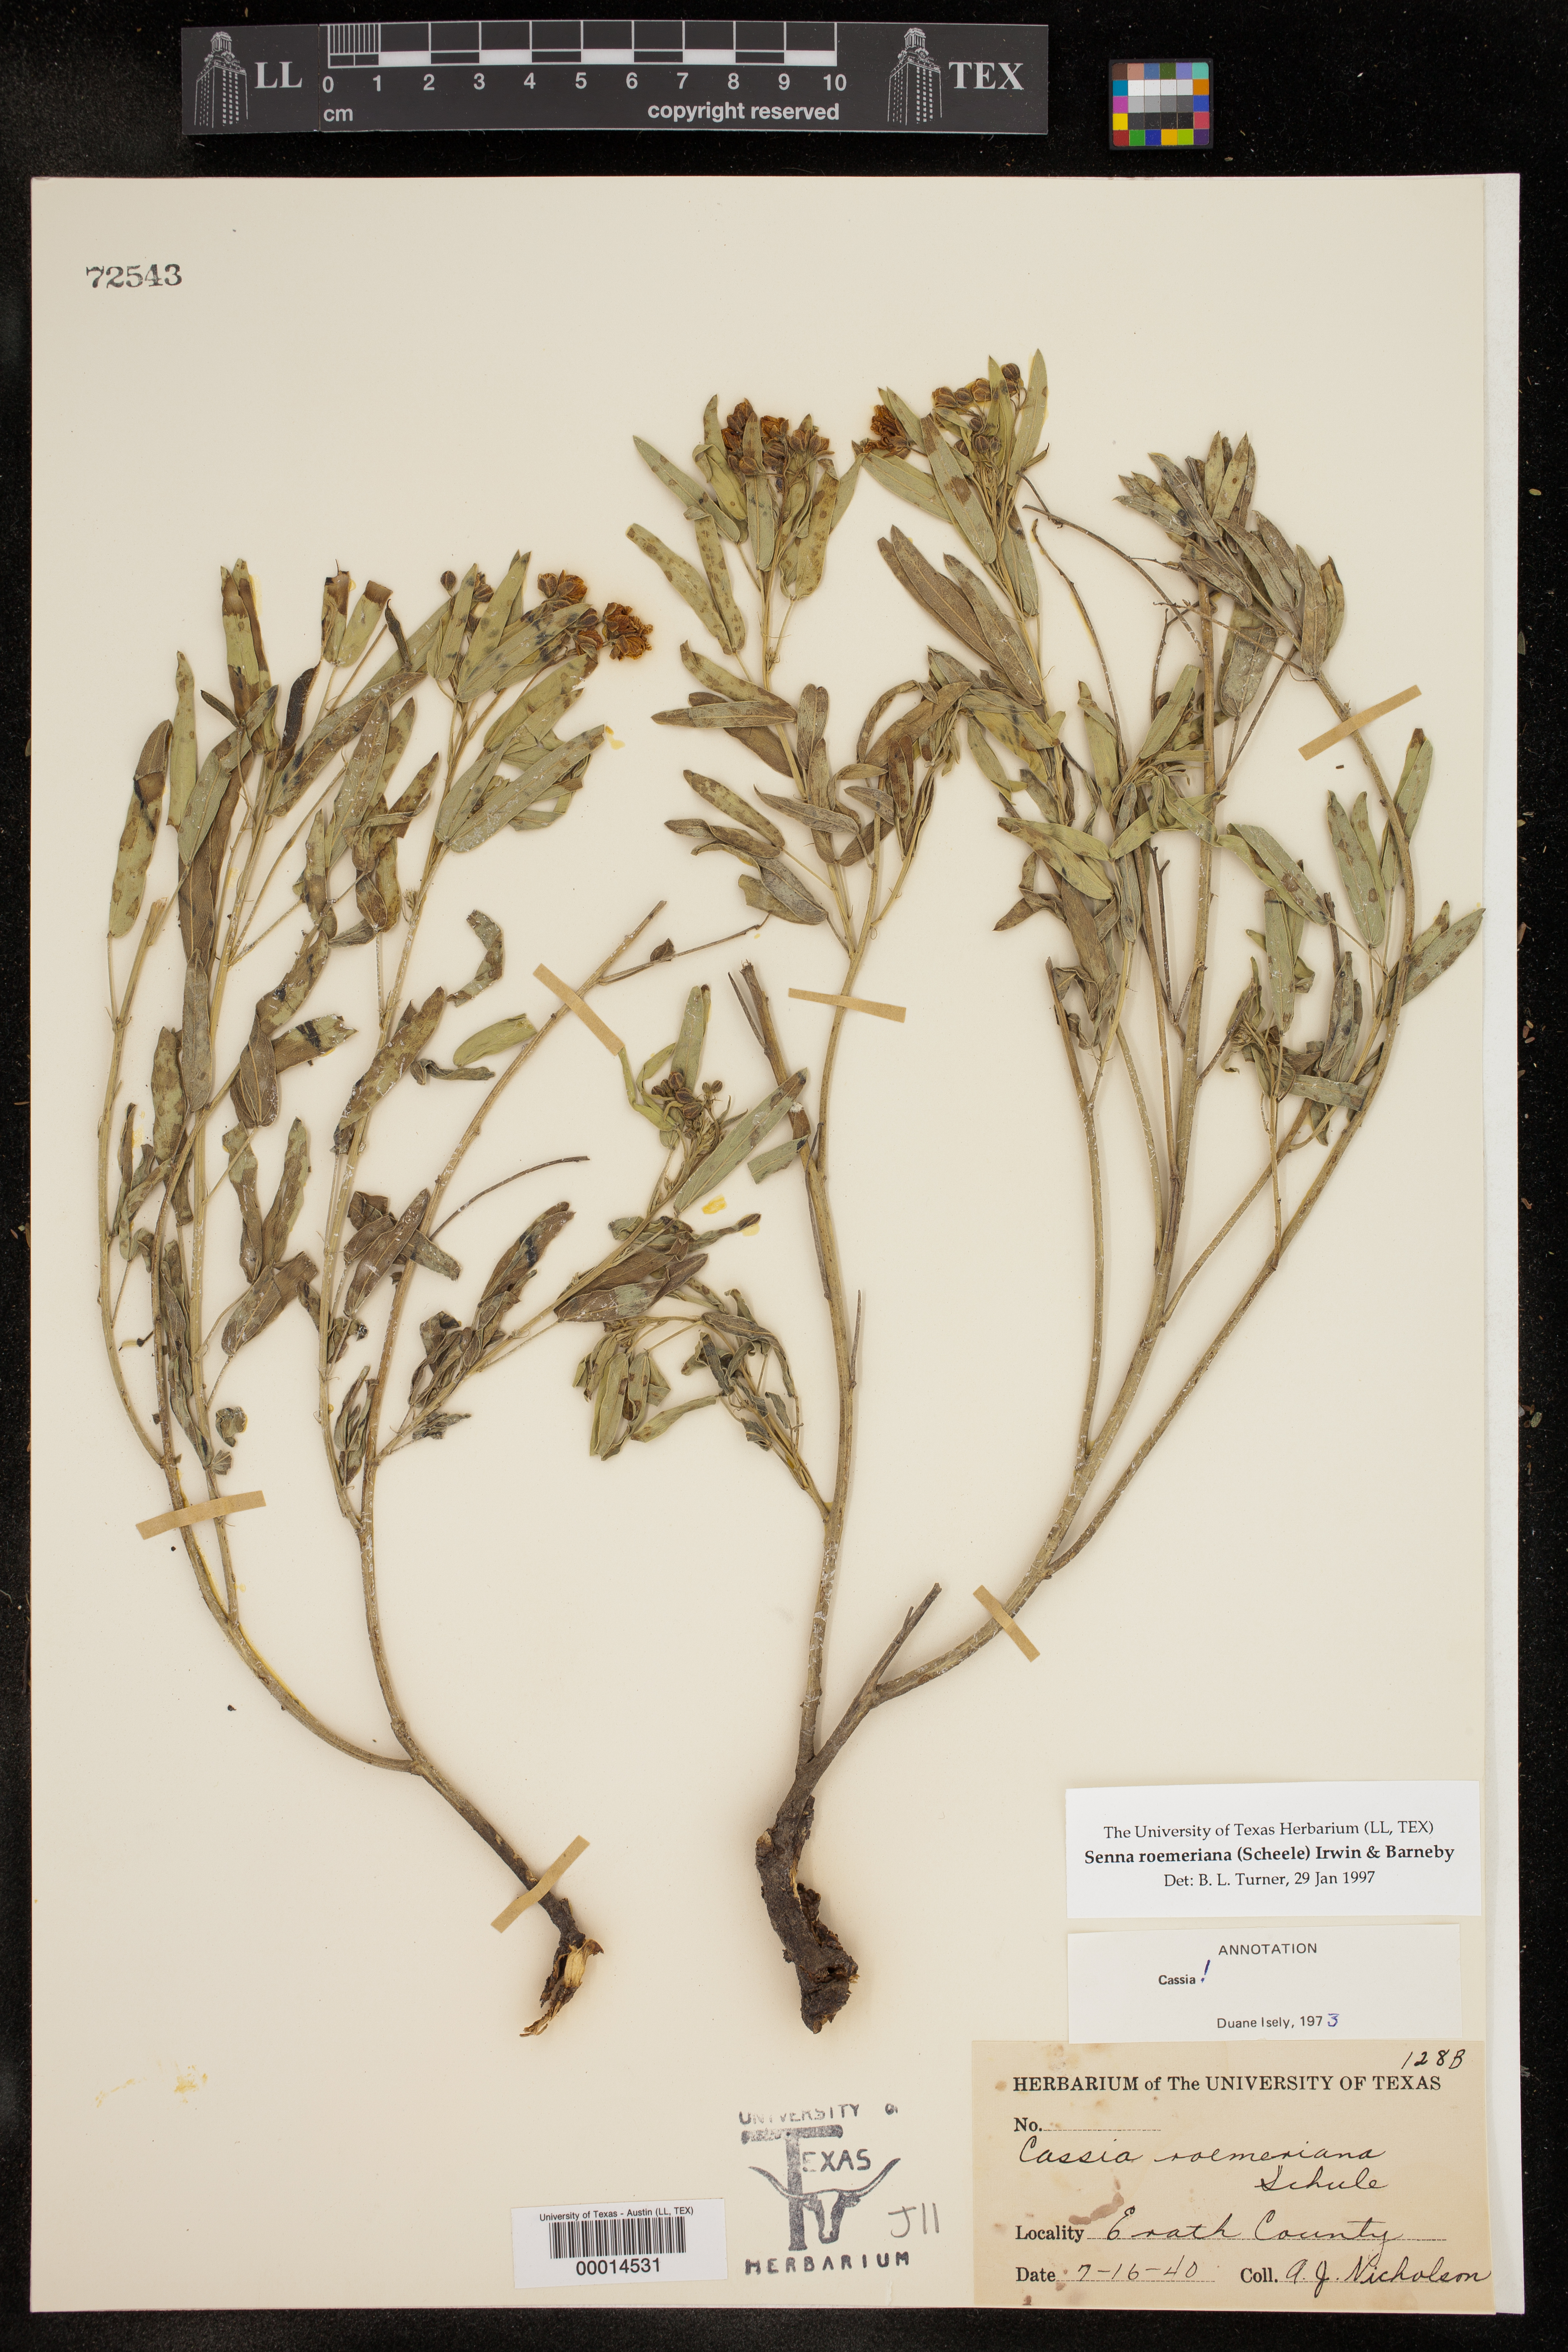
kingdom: Plantae
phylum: Tracheophyta
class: Magnoliopsida
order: Fabales
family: Fabaceae
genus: Senna
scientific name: Senna roemeriana
